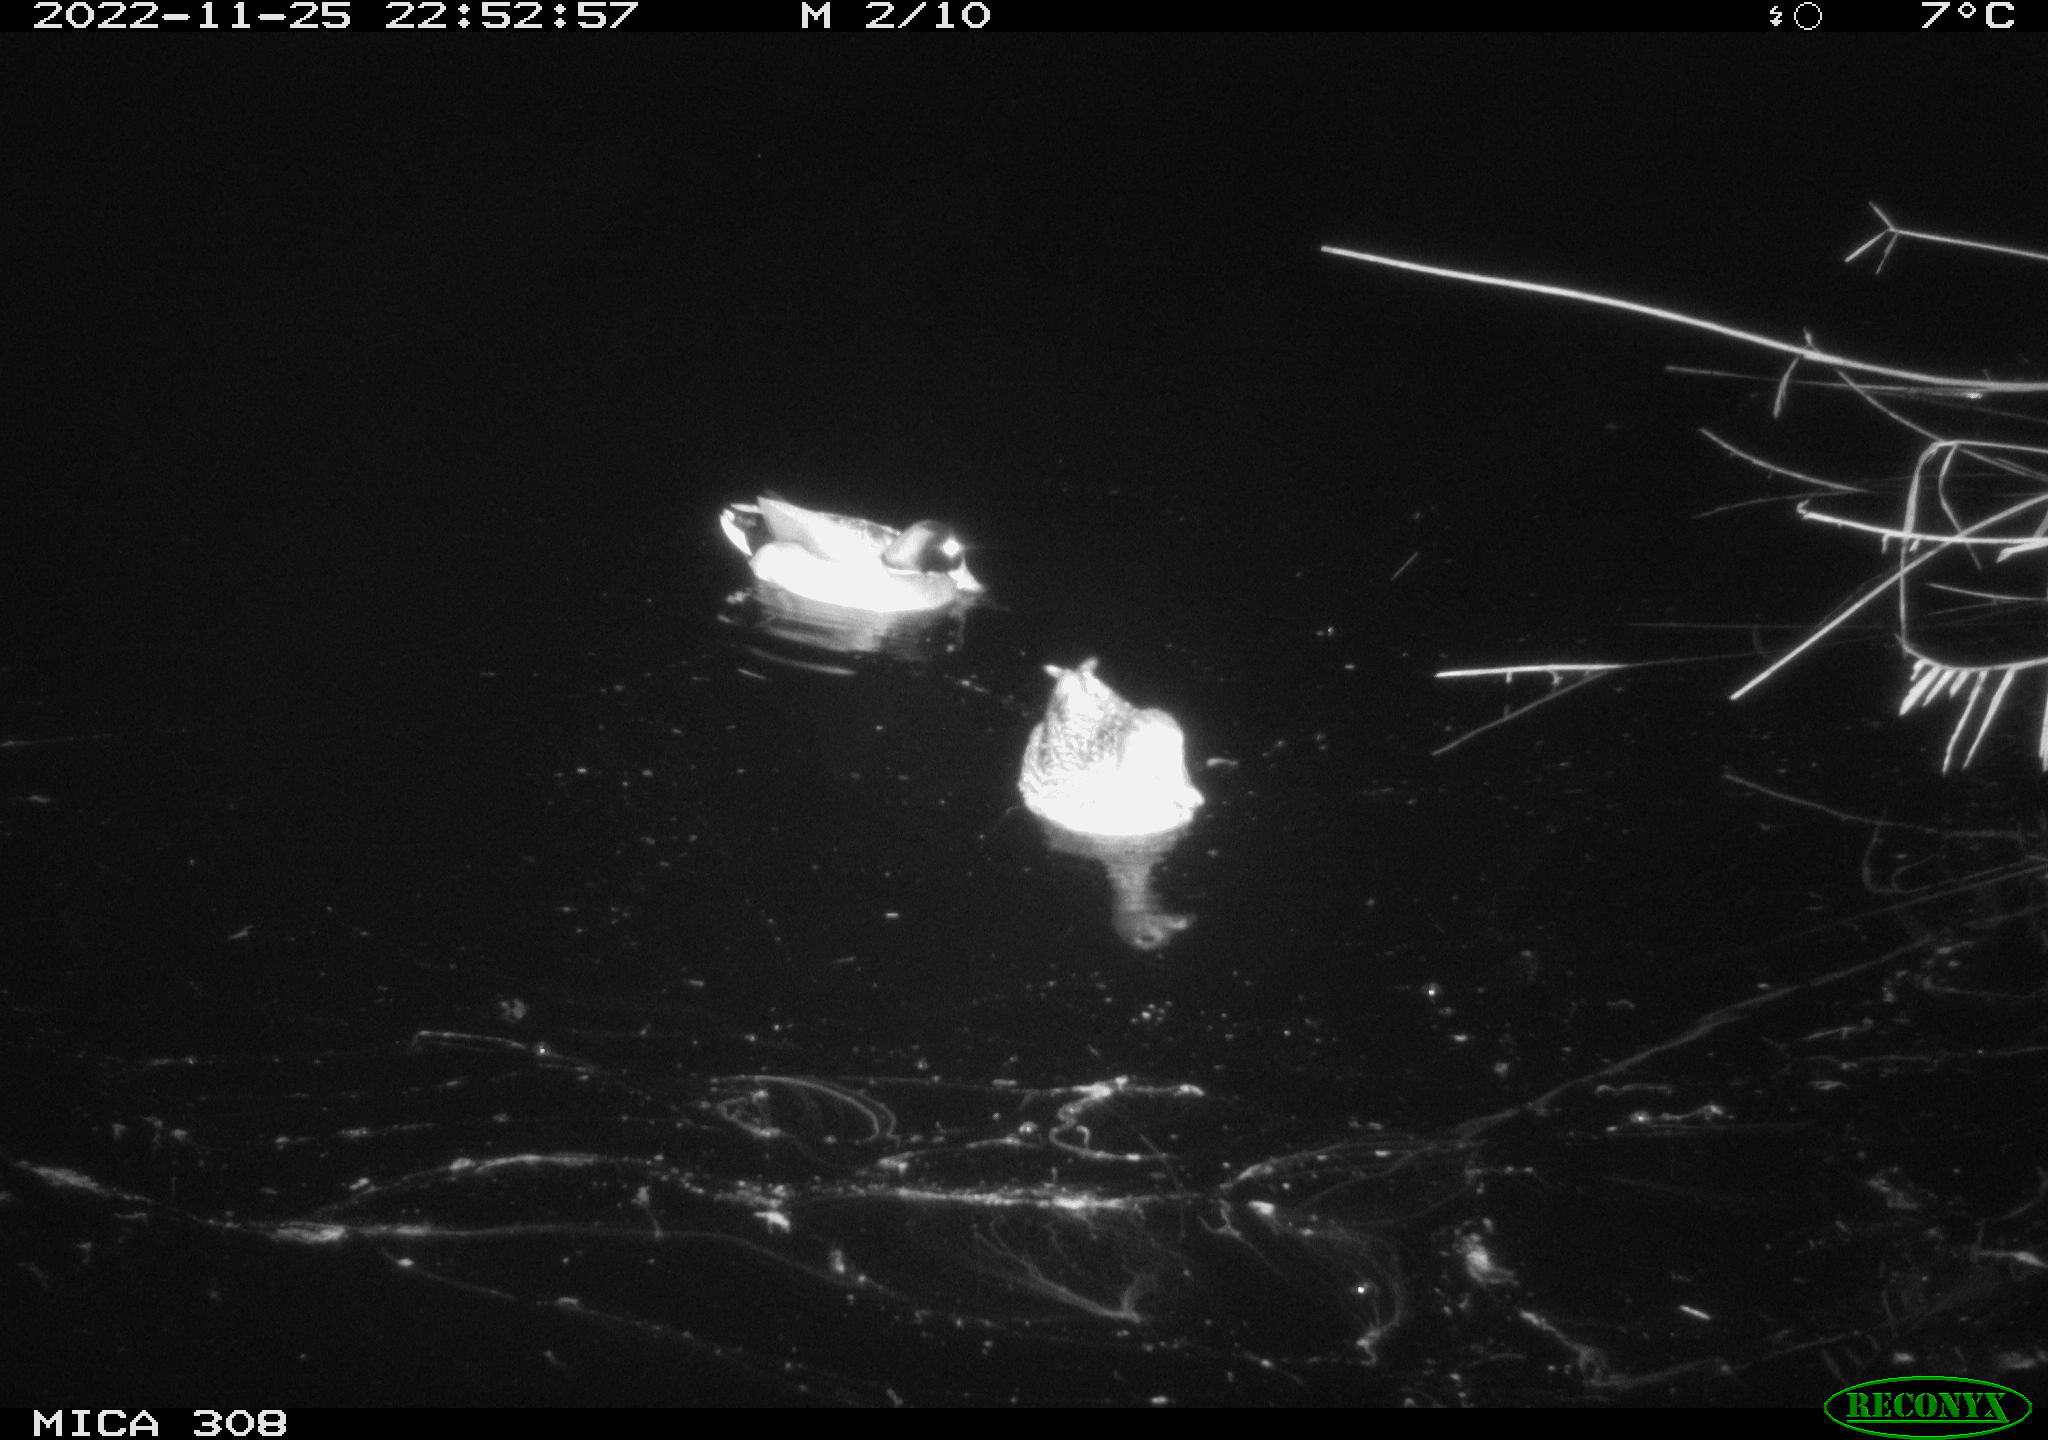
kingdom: Animalia
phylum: Chordata
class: Aves
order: Gruiformes
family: Rallidae
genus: Gallinula
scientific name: Gallinula chloropus
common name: Common moorhen
